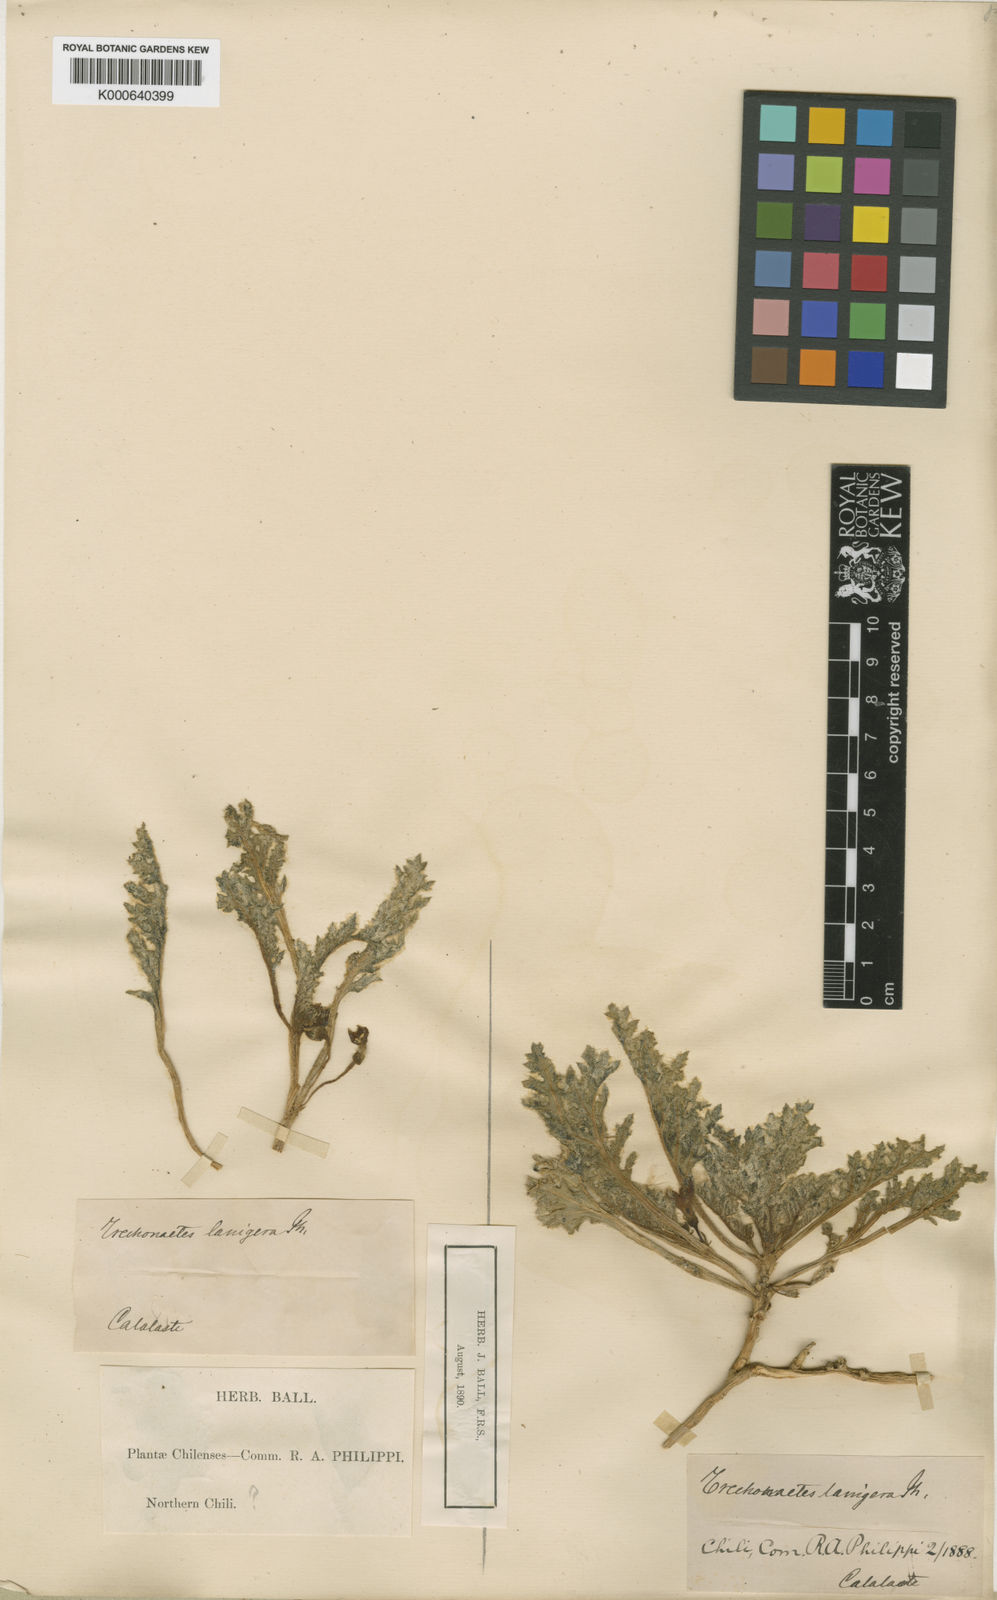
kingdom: Plantae
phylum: Tracheophyta
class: Magnoliopsida
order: Solanales
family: Solanaceae
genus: Jaborosa
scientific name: Jaborosa lanigera
